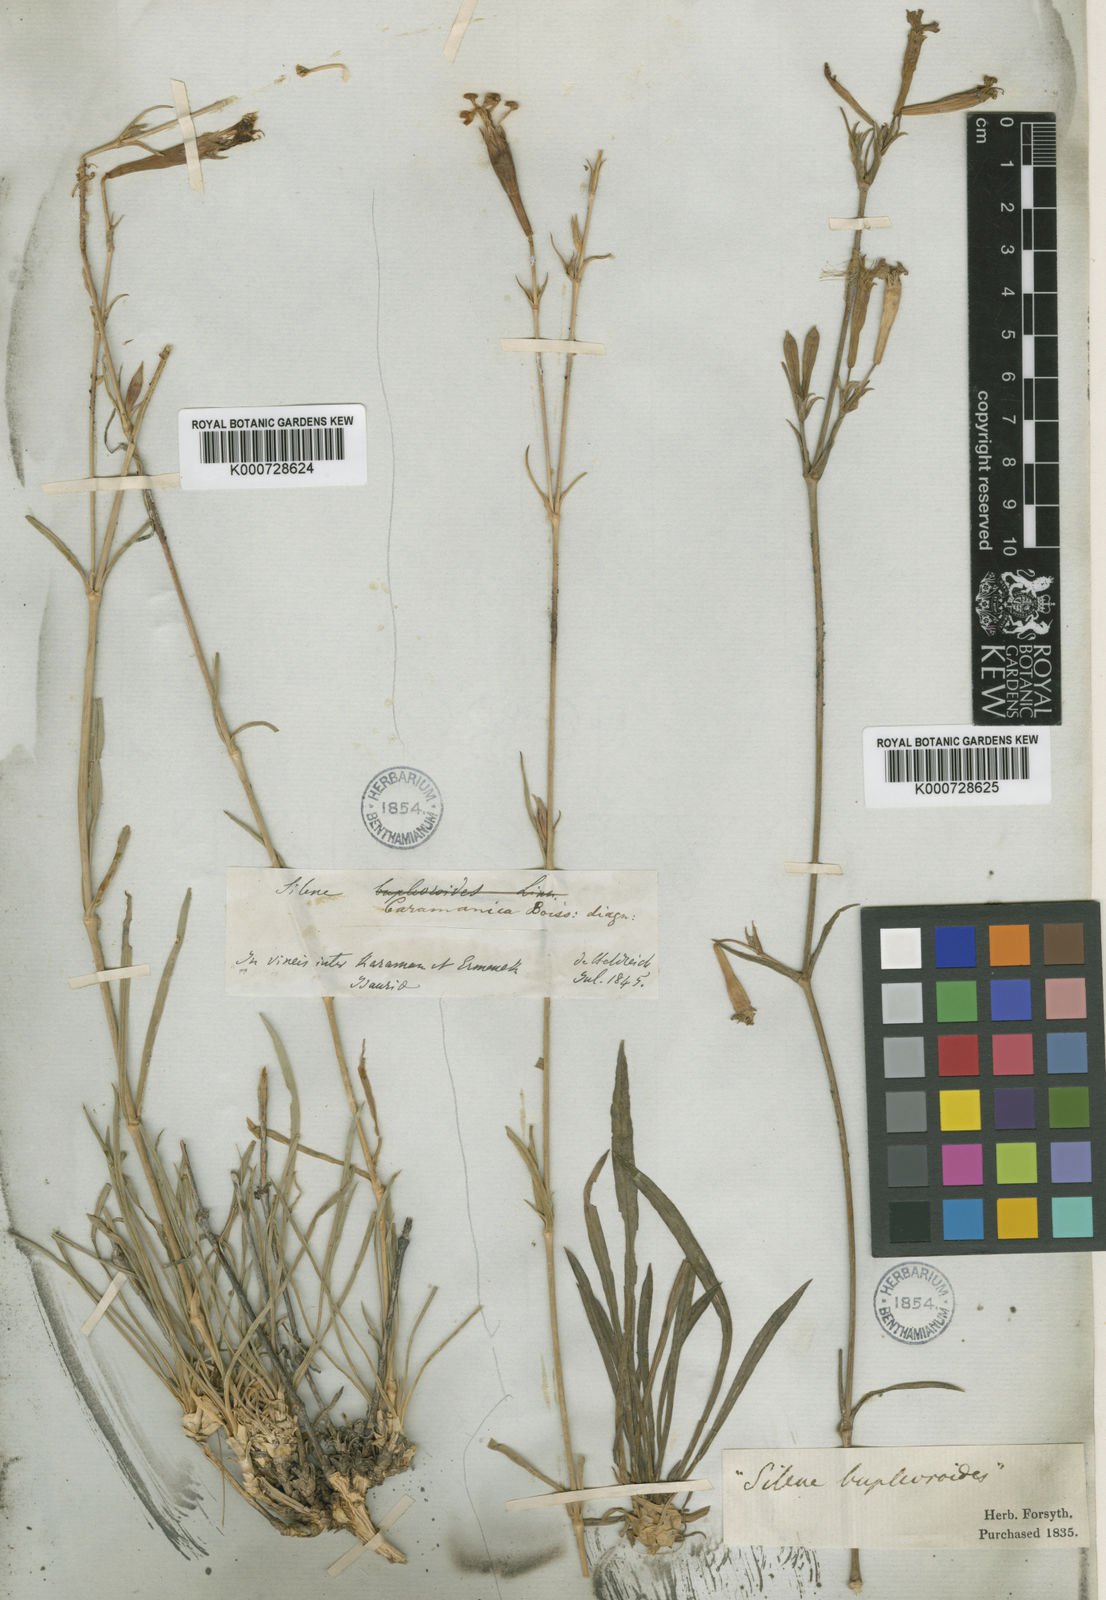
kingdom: Plantae
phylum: Tracheophyta
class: Magnoliopsida
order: Caryophyllales
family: Caryophyllaceae
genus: Silene
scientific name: Silene caramanica
